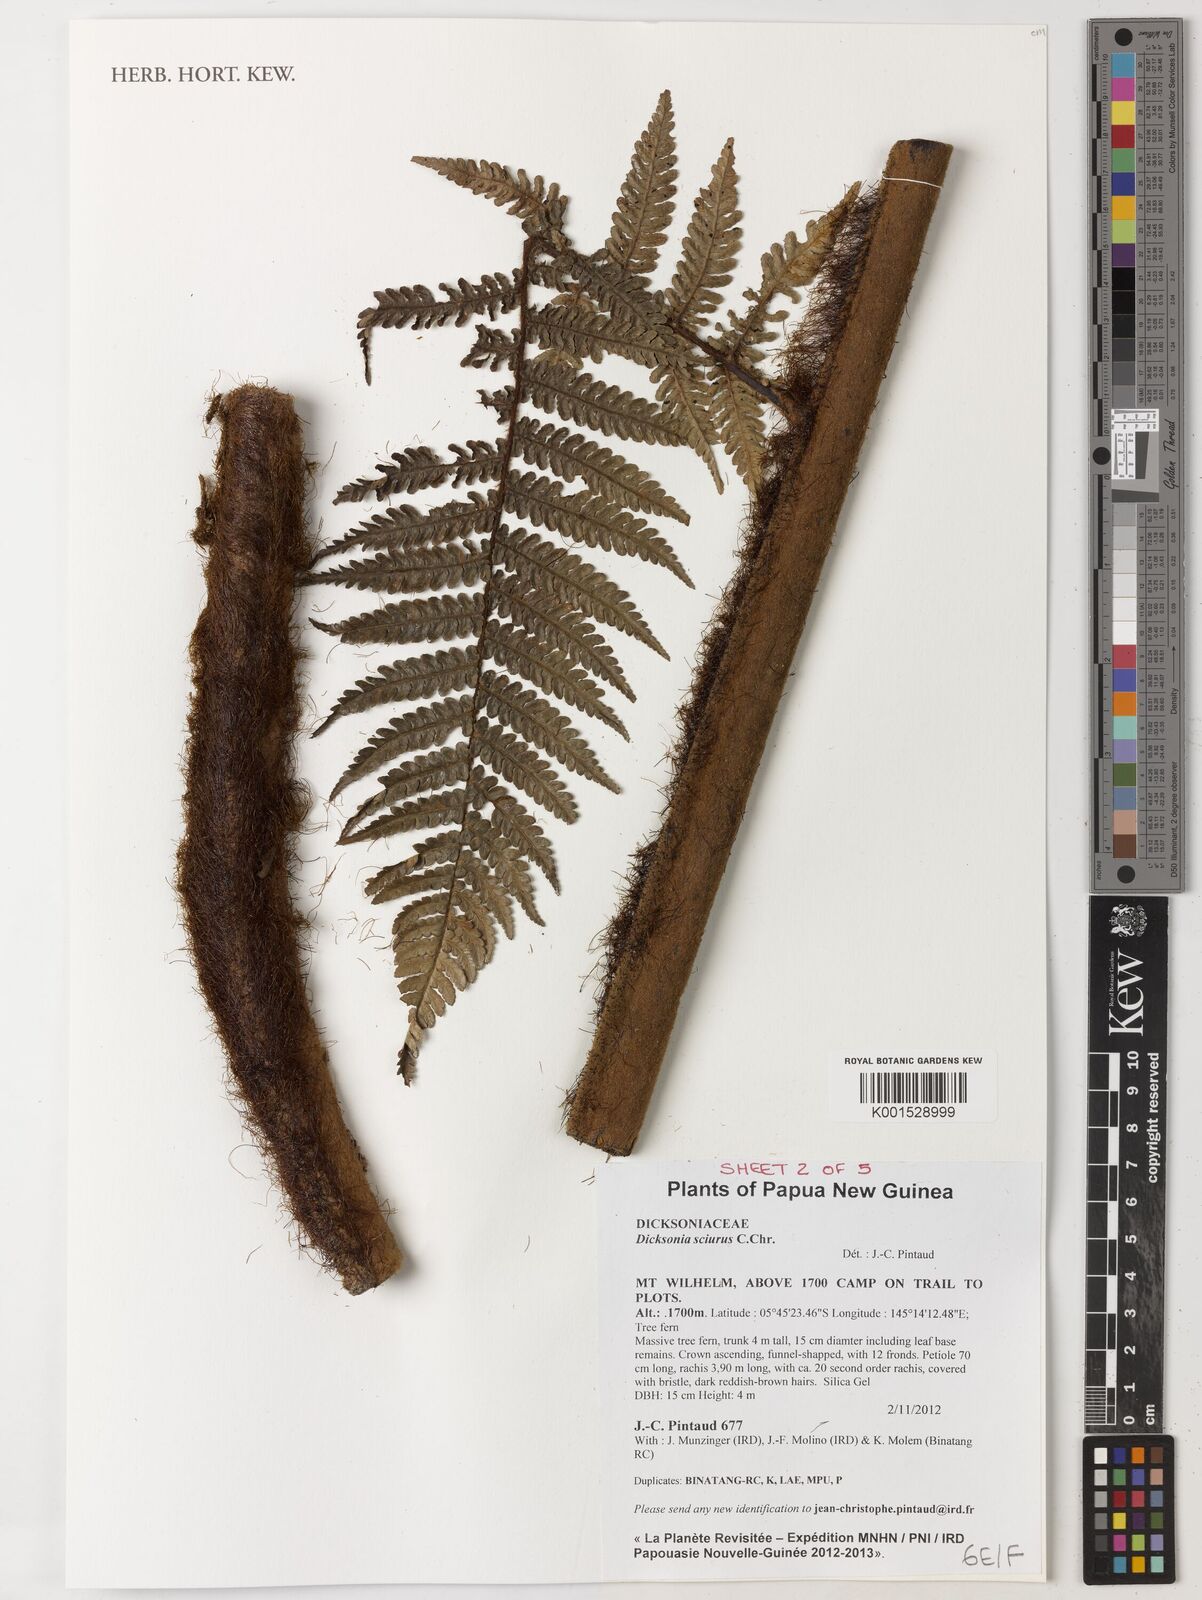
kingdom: Plantae
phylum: Tracheophyta
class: Polypodiopsida
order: Cyatheales
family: Dicksoniaceae
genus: Dicksonia
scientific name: Dicksonia sciurus
